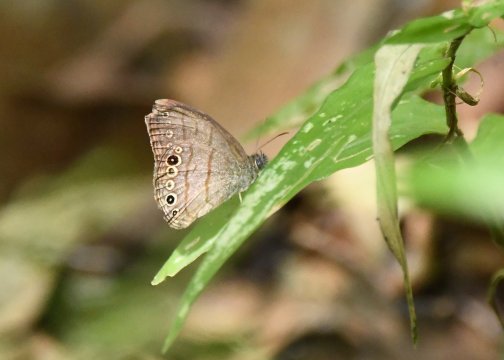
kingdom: Animalia
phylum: Arthropoda
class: Insecta
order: Lepidoptera
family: Nymphalidae
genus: Hermeuptychia
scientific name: Hermeuptychia hermes
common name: Hermes Satyr
